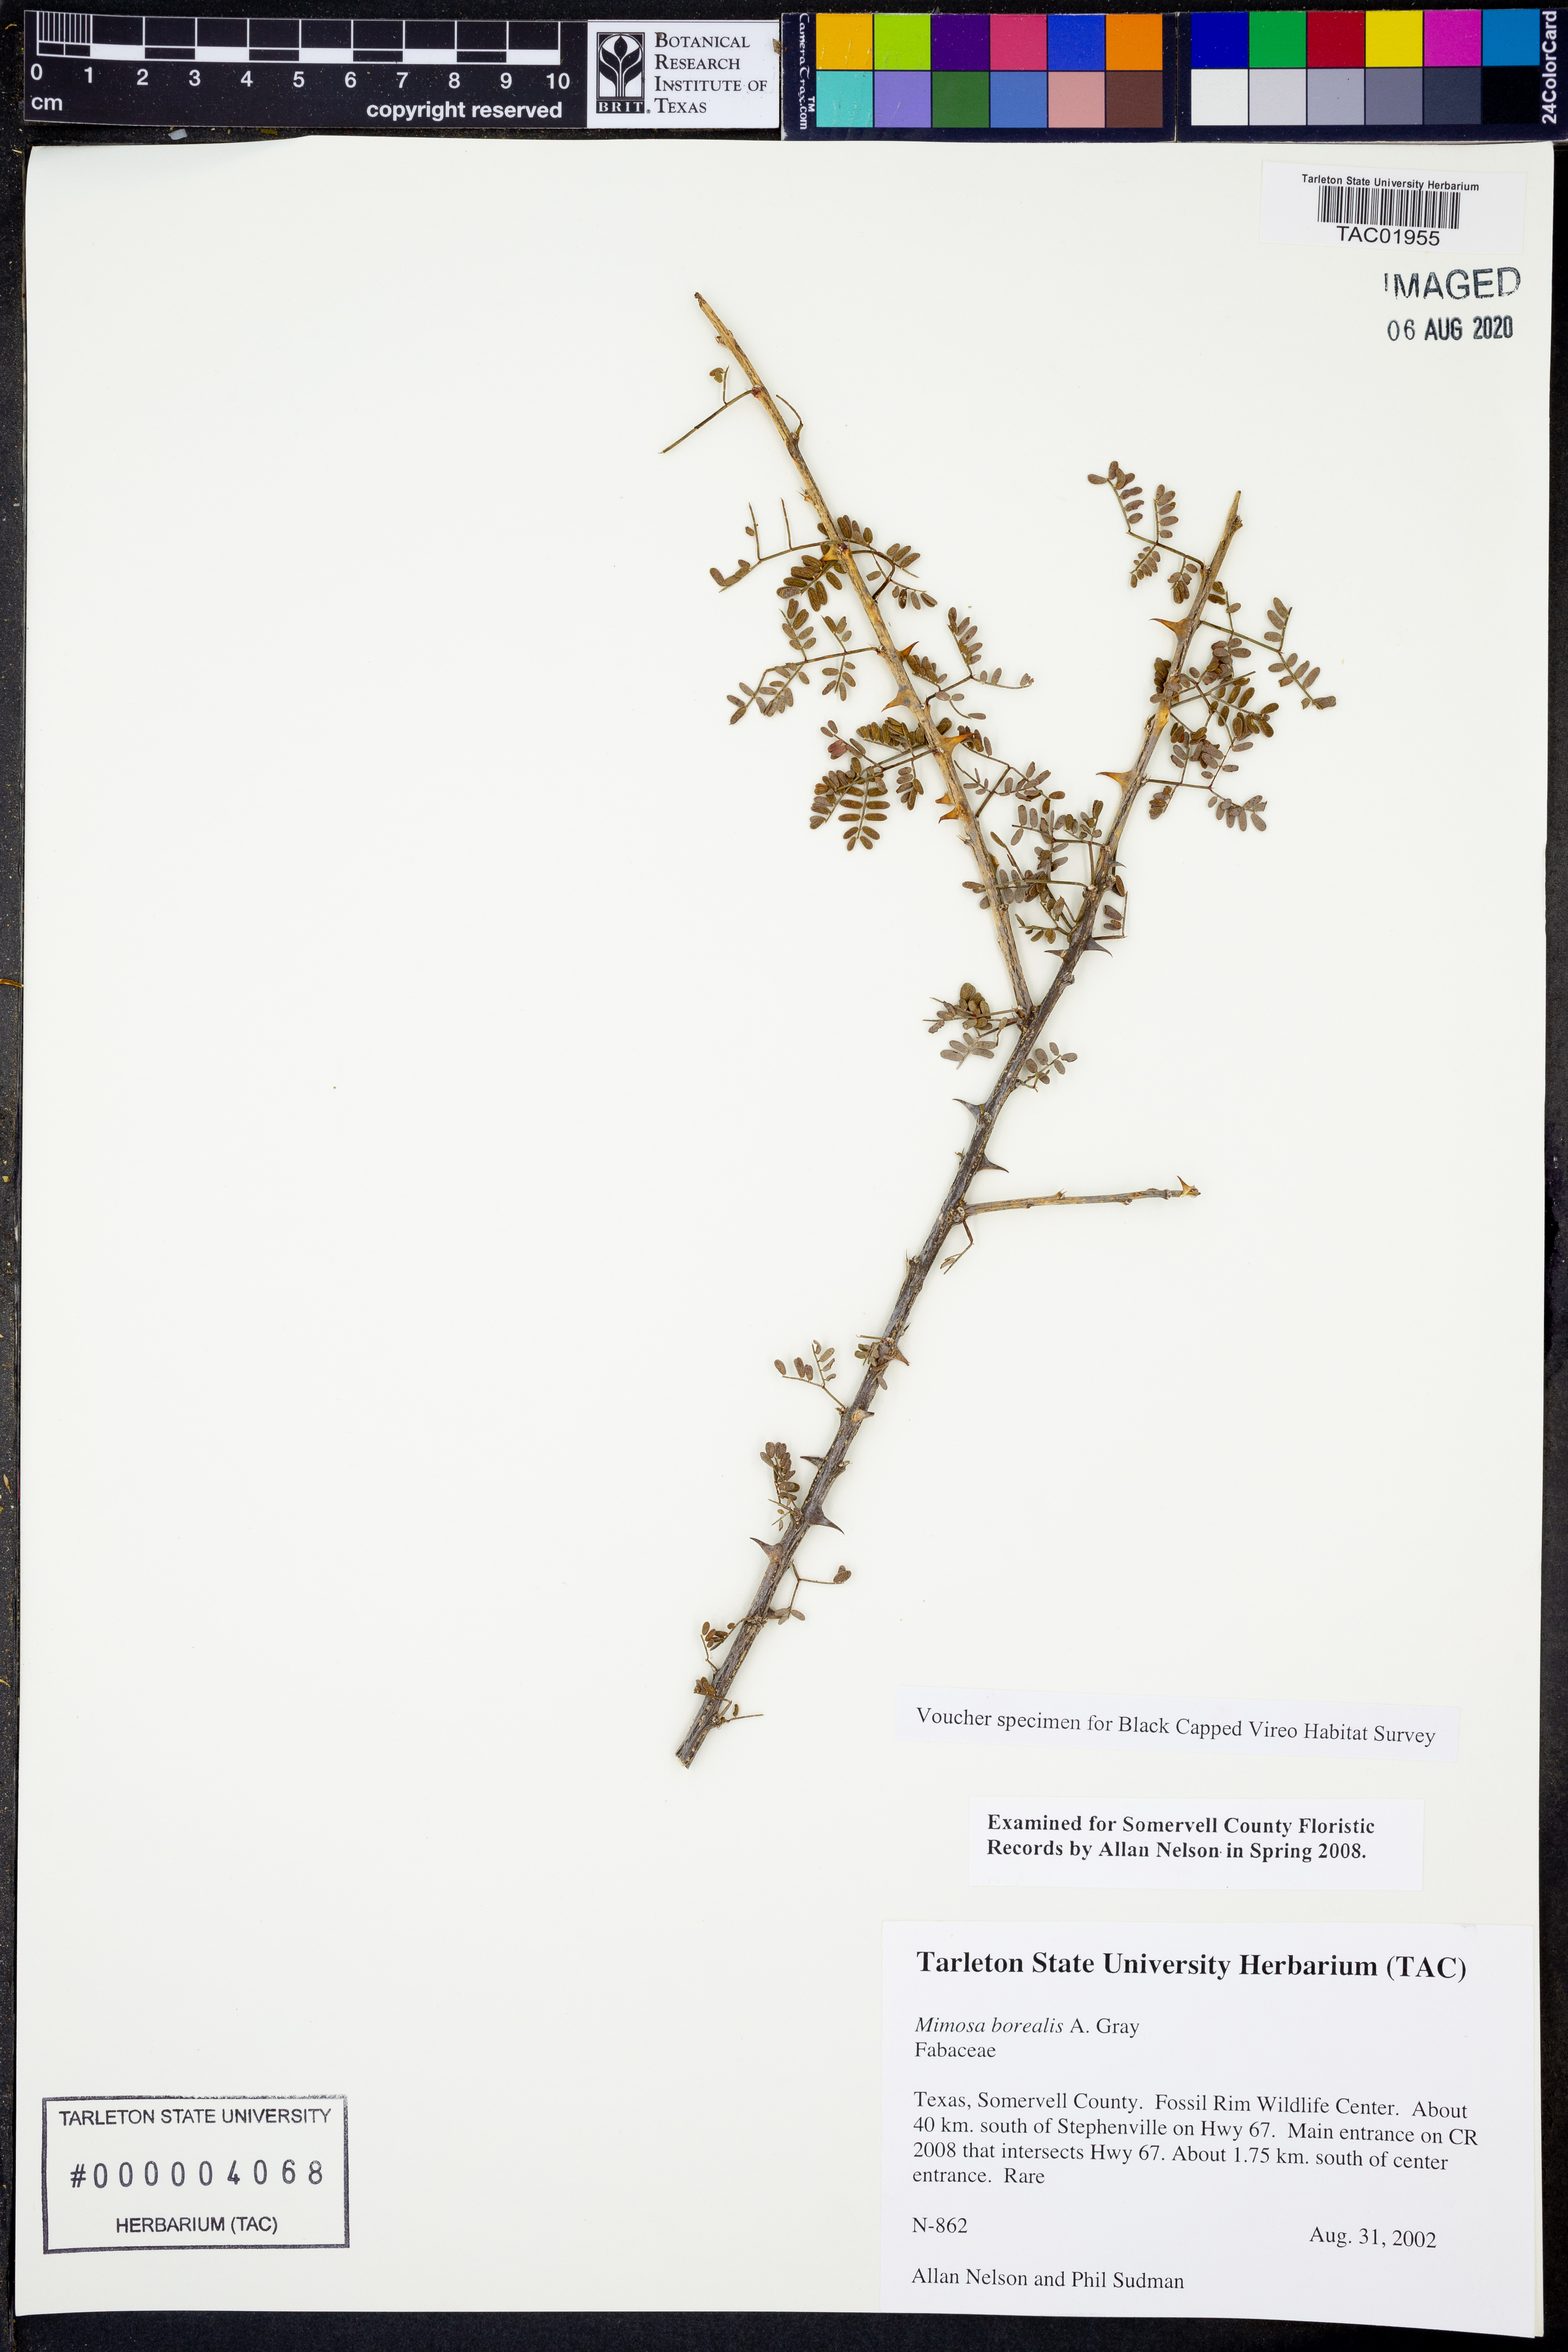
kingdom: Plantae
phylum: Tracheophyta
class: Magnoliopsida
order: Fabales
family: Fabaceae
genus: Mimosa
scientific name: Mimosa borealis
